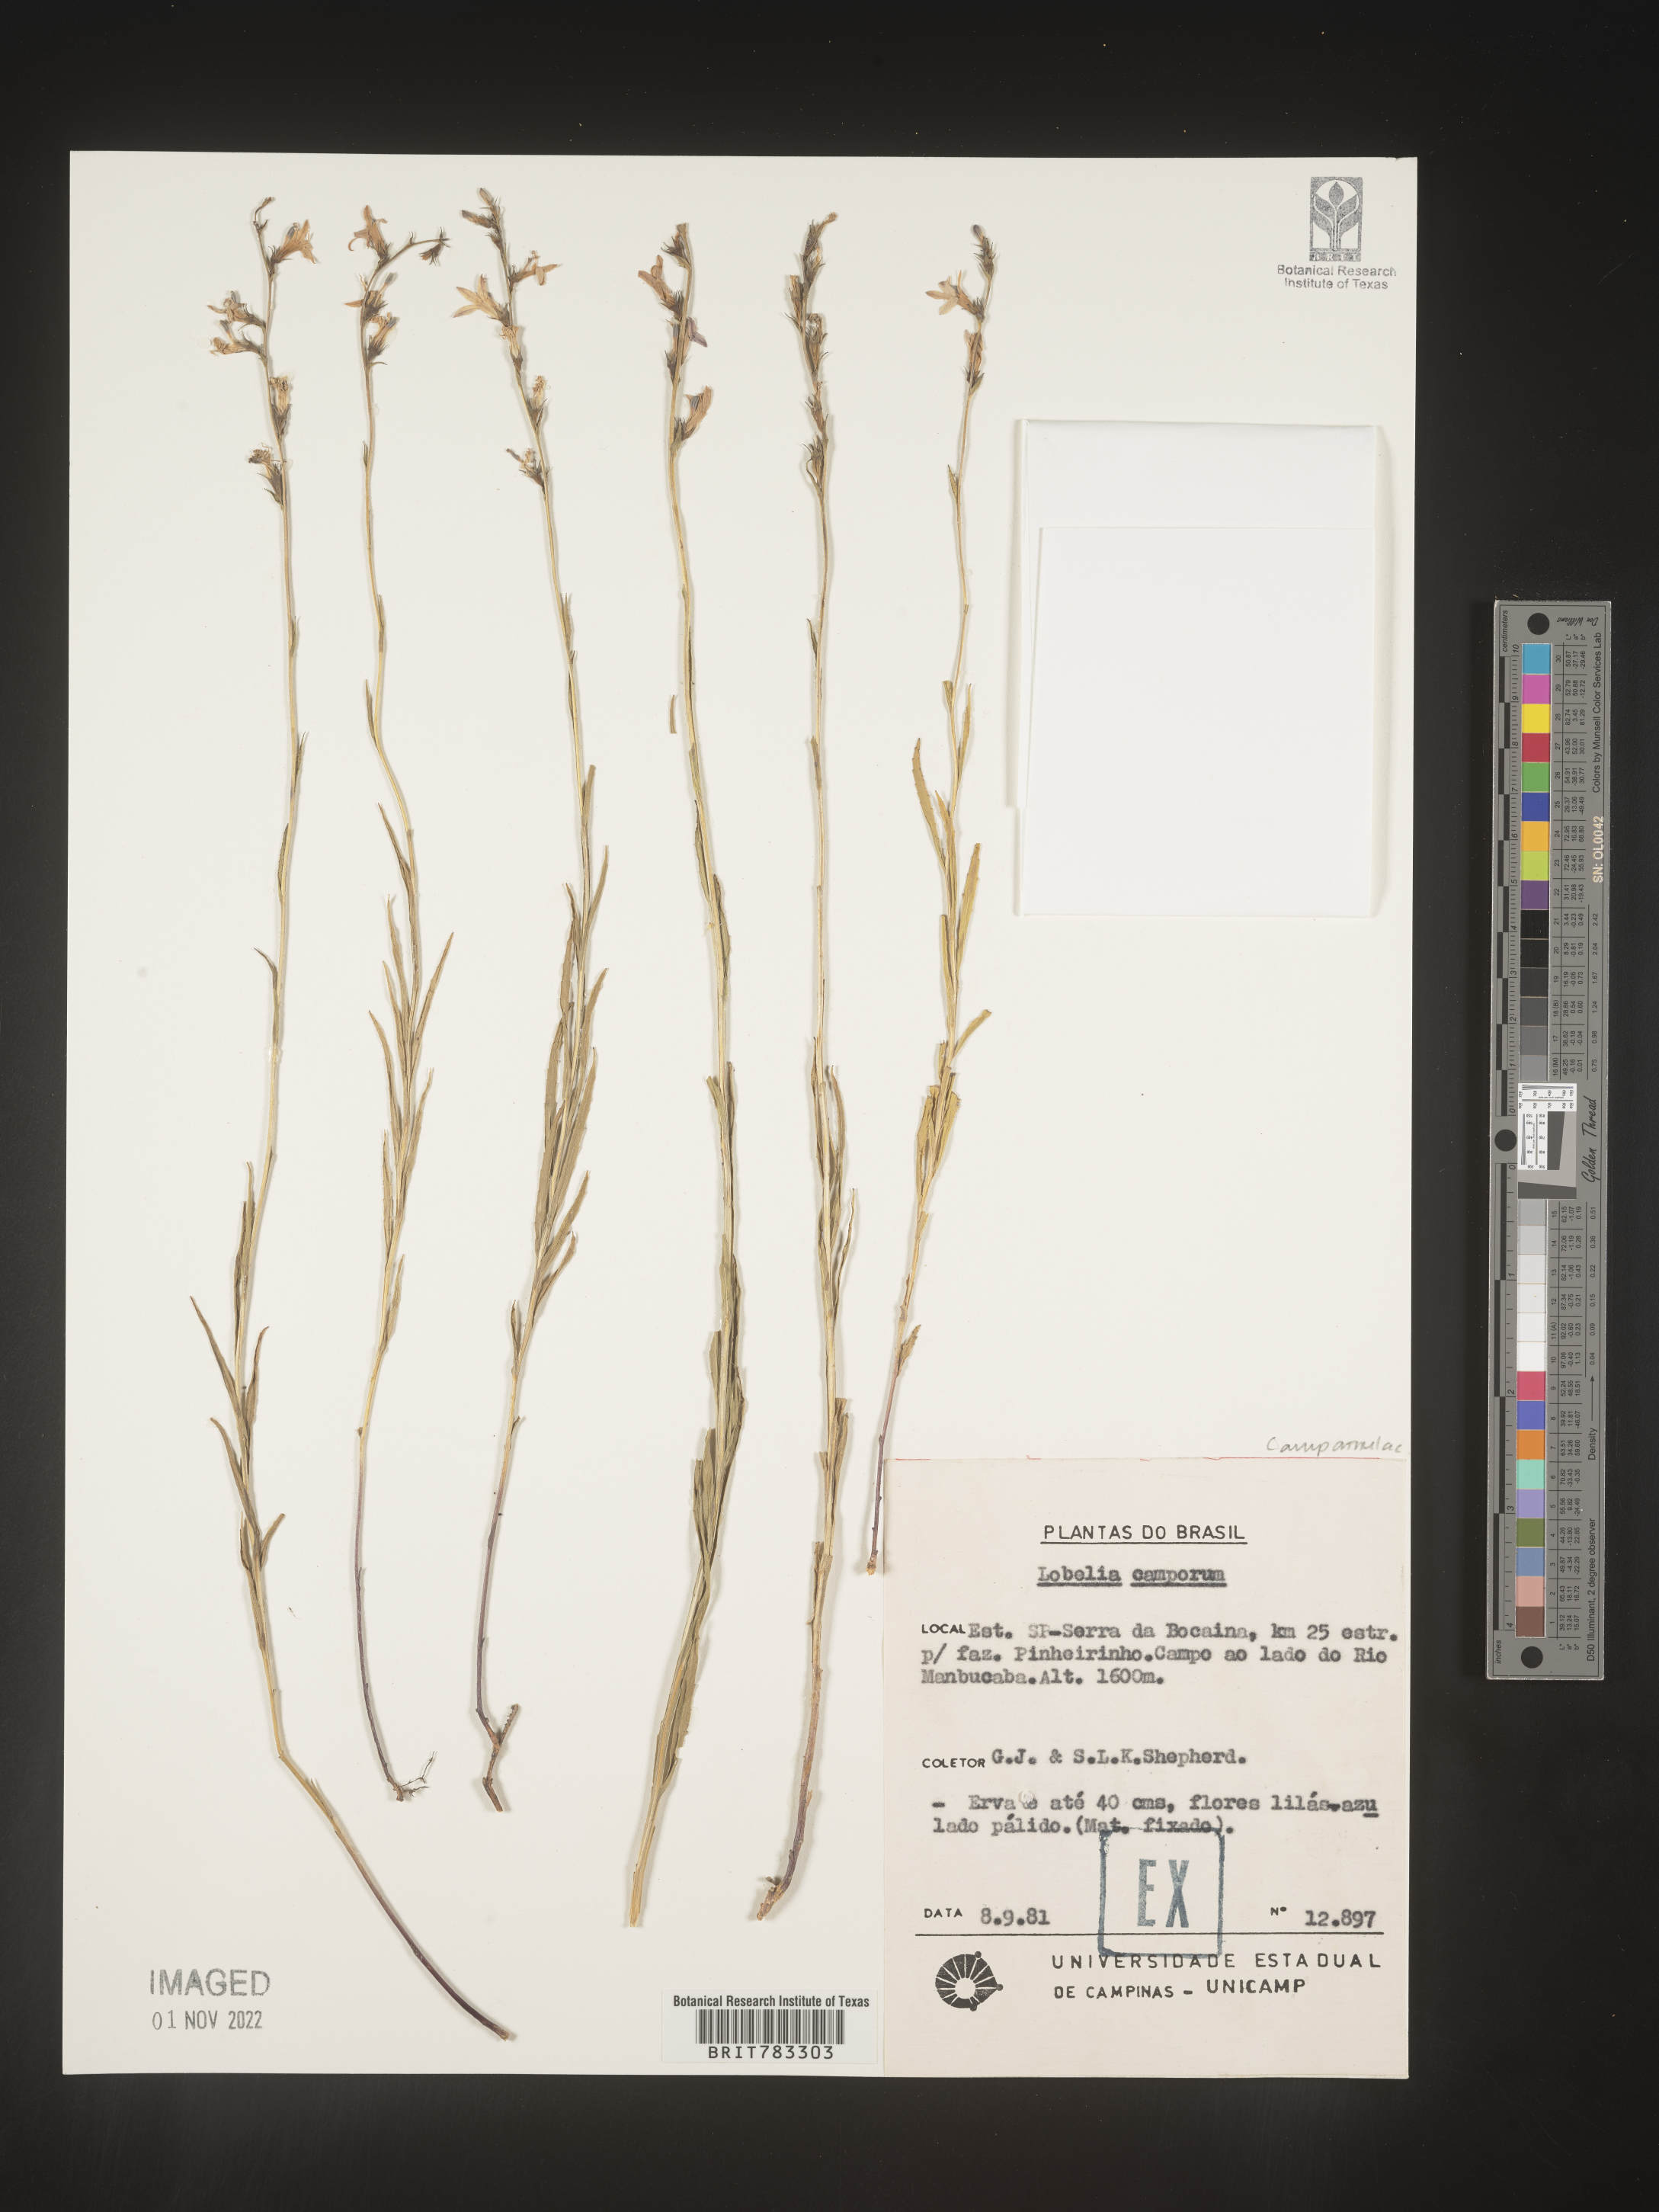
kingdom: Plantae
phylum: Tracheophyta
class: Magnoliopsida
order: Asterales
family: Campanulaceae
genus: Lobelia
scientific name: Lobelia
